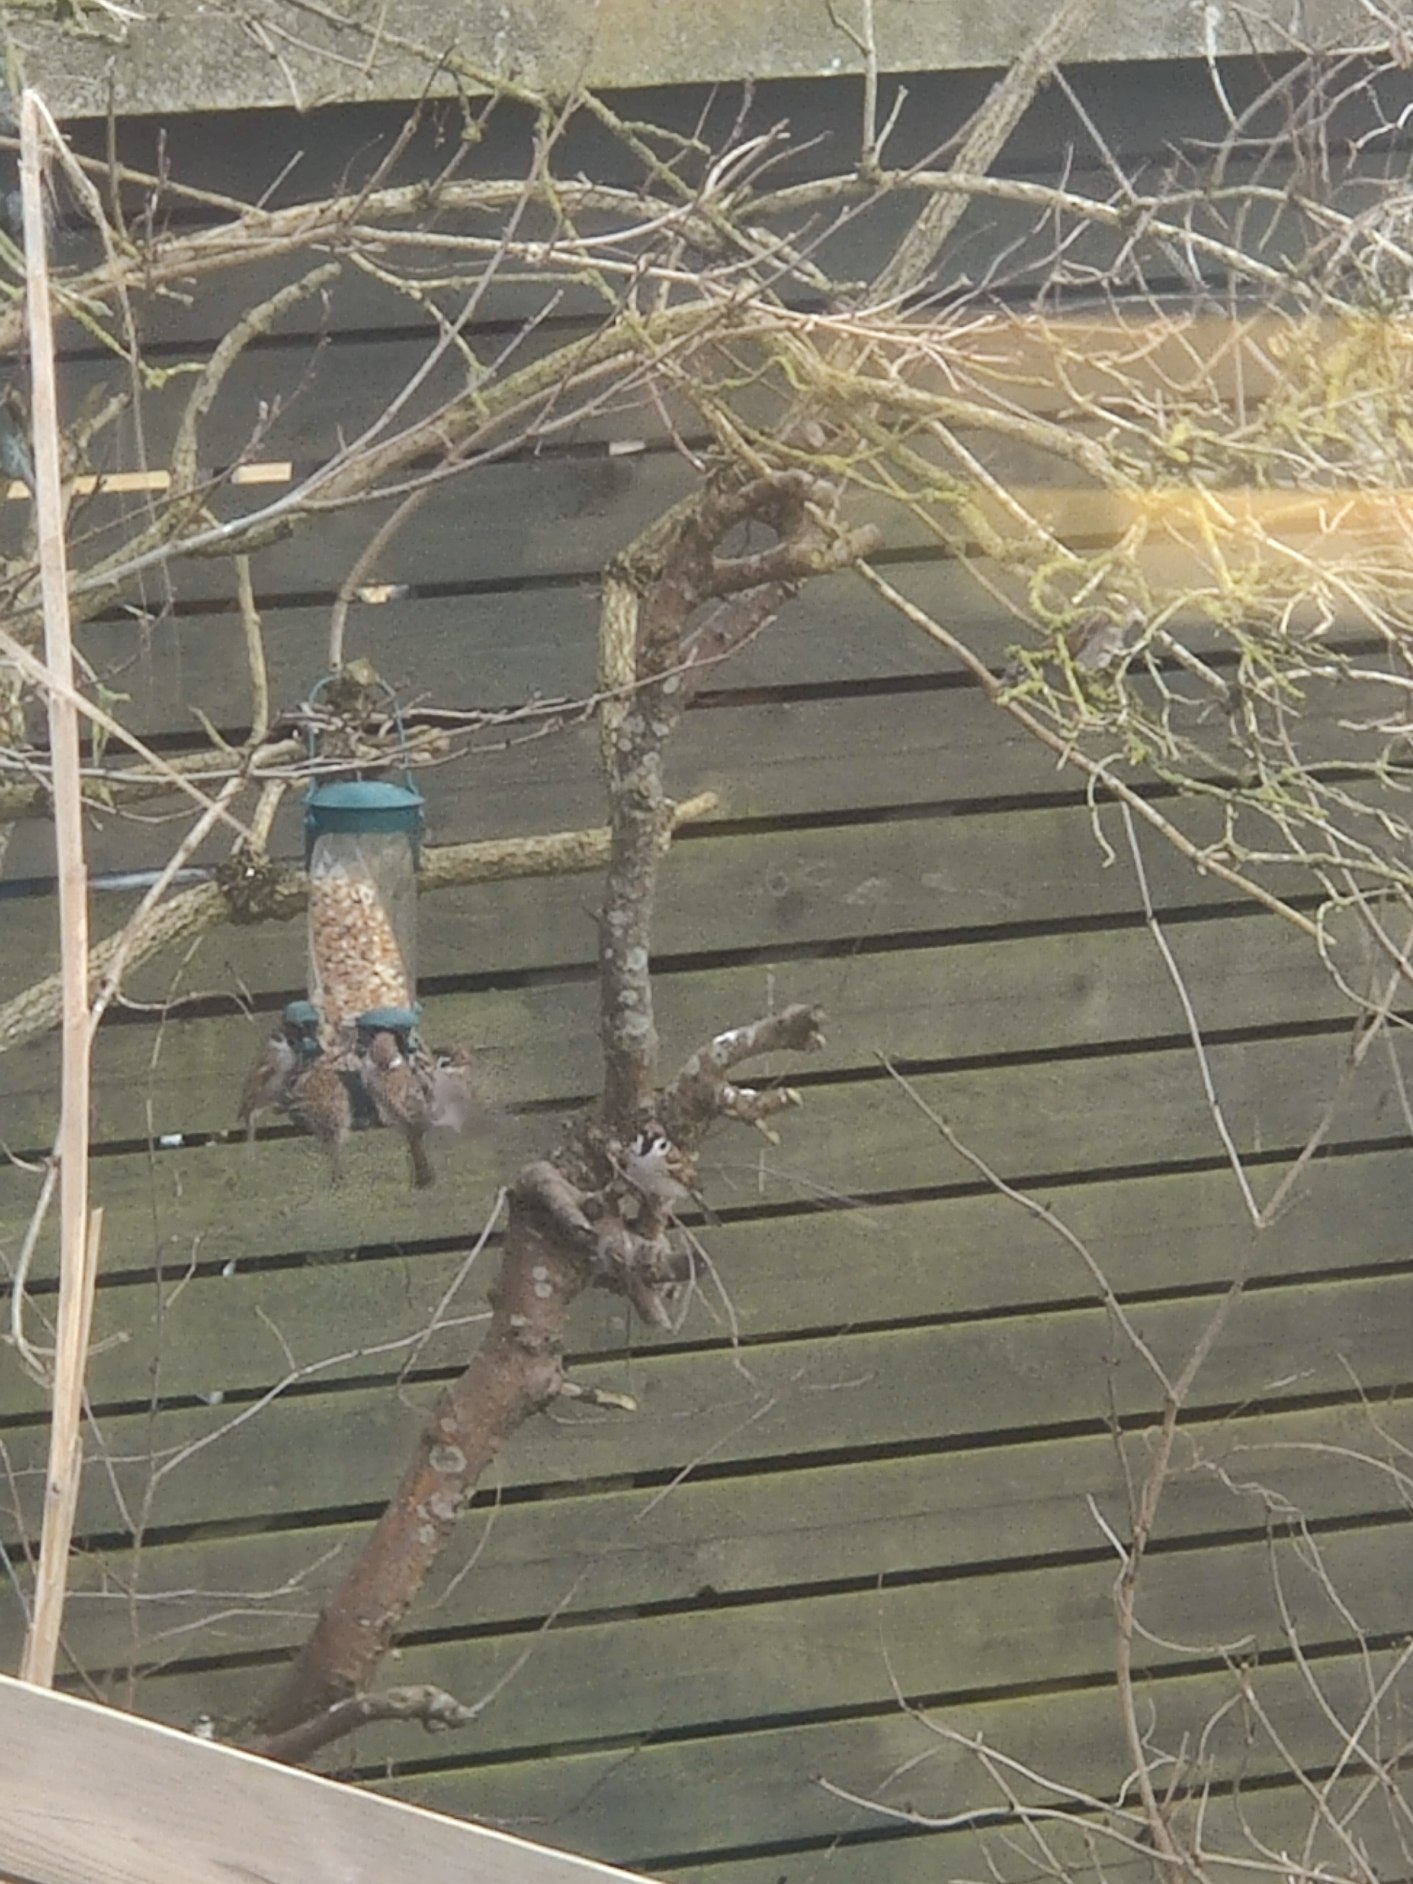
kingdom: Animalia
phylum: Chordata
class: Aves
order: Passeriformes
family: Passeridae
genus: Passer
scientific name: Passer montanus
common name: Skovspurv
